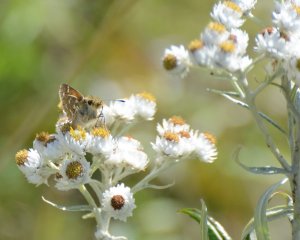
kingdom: Animalia
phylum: Arthropoda
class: Insecta
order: Lepidoptera
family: Hesperiidae
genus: Hesperia
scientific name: Hesperia comma
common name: Common Branded Skipper
